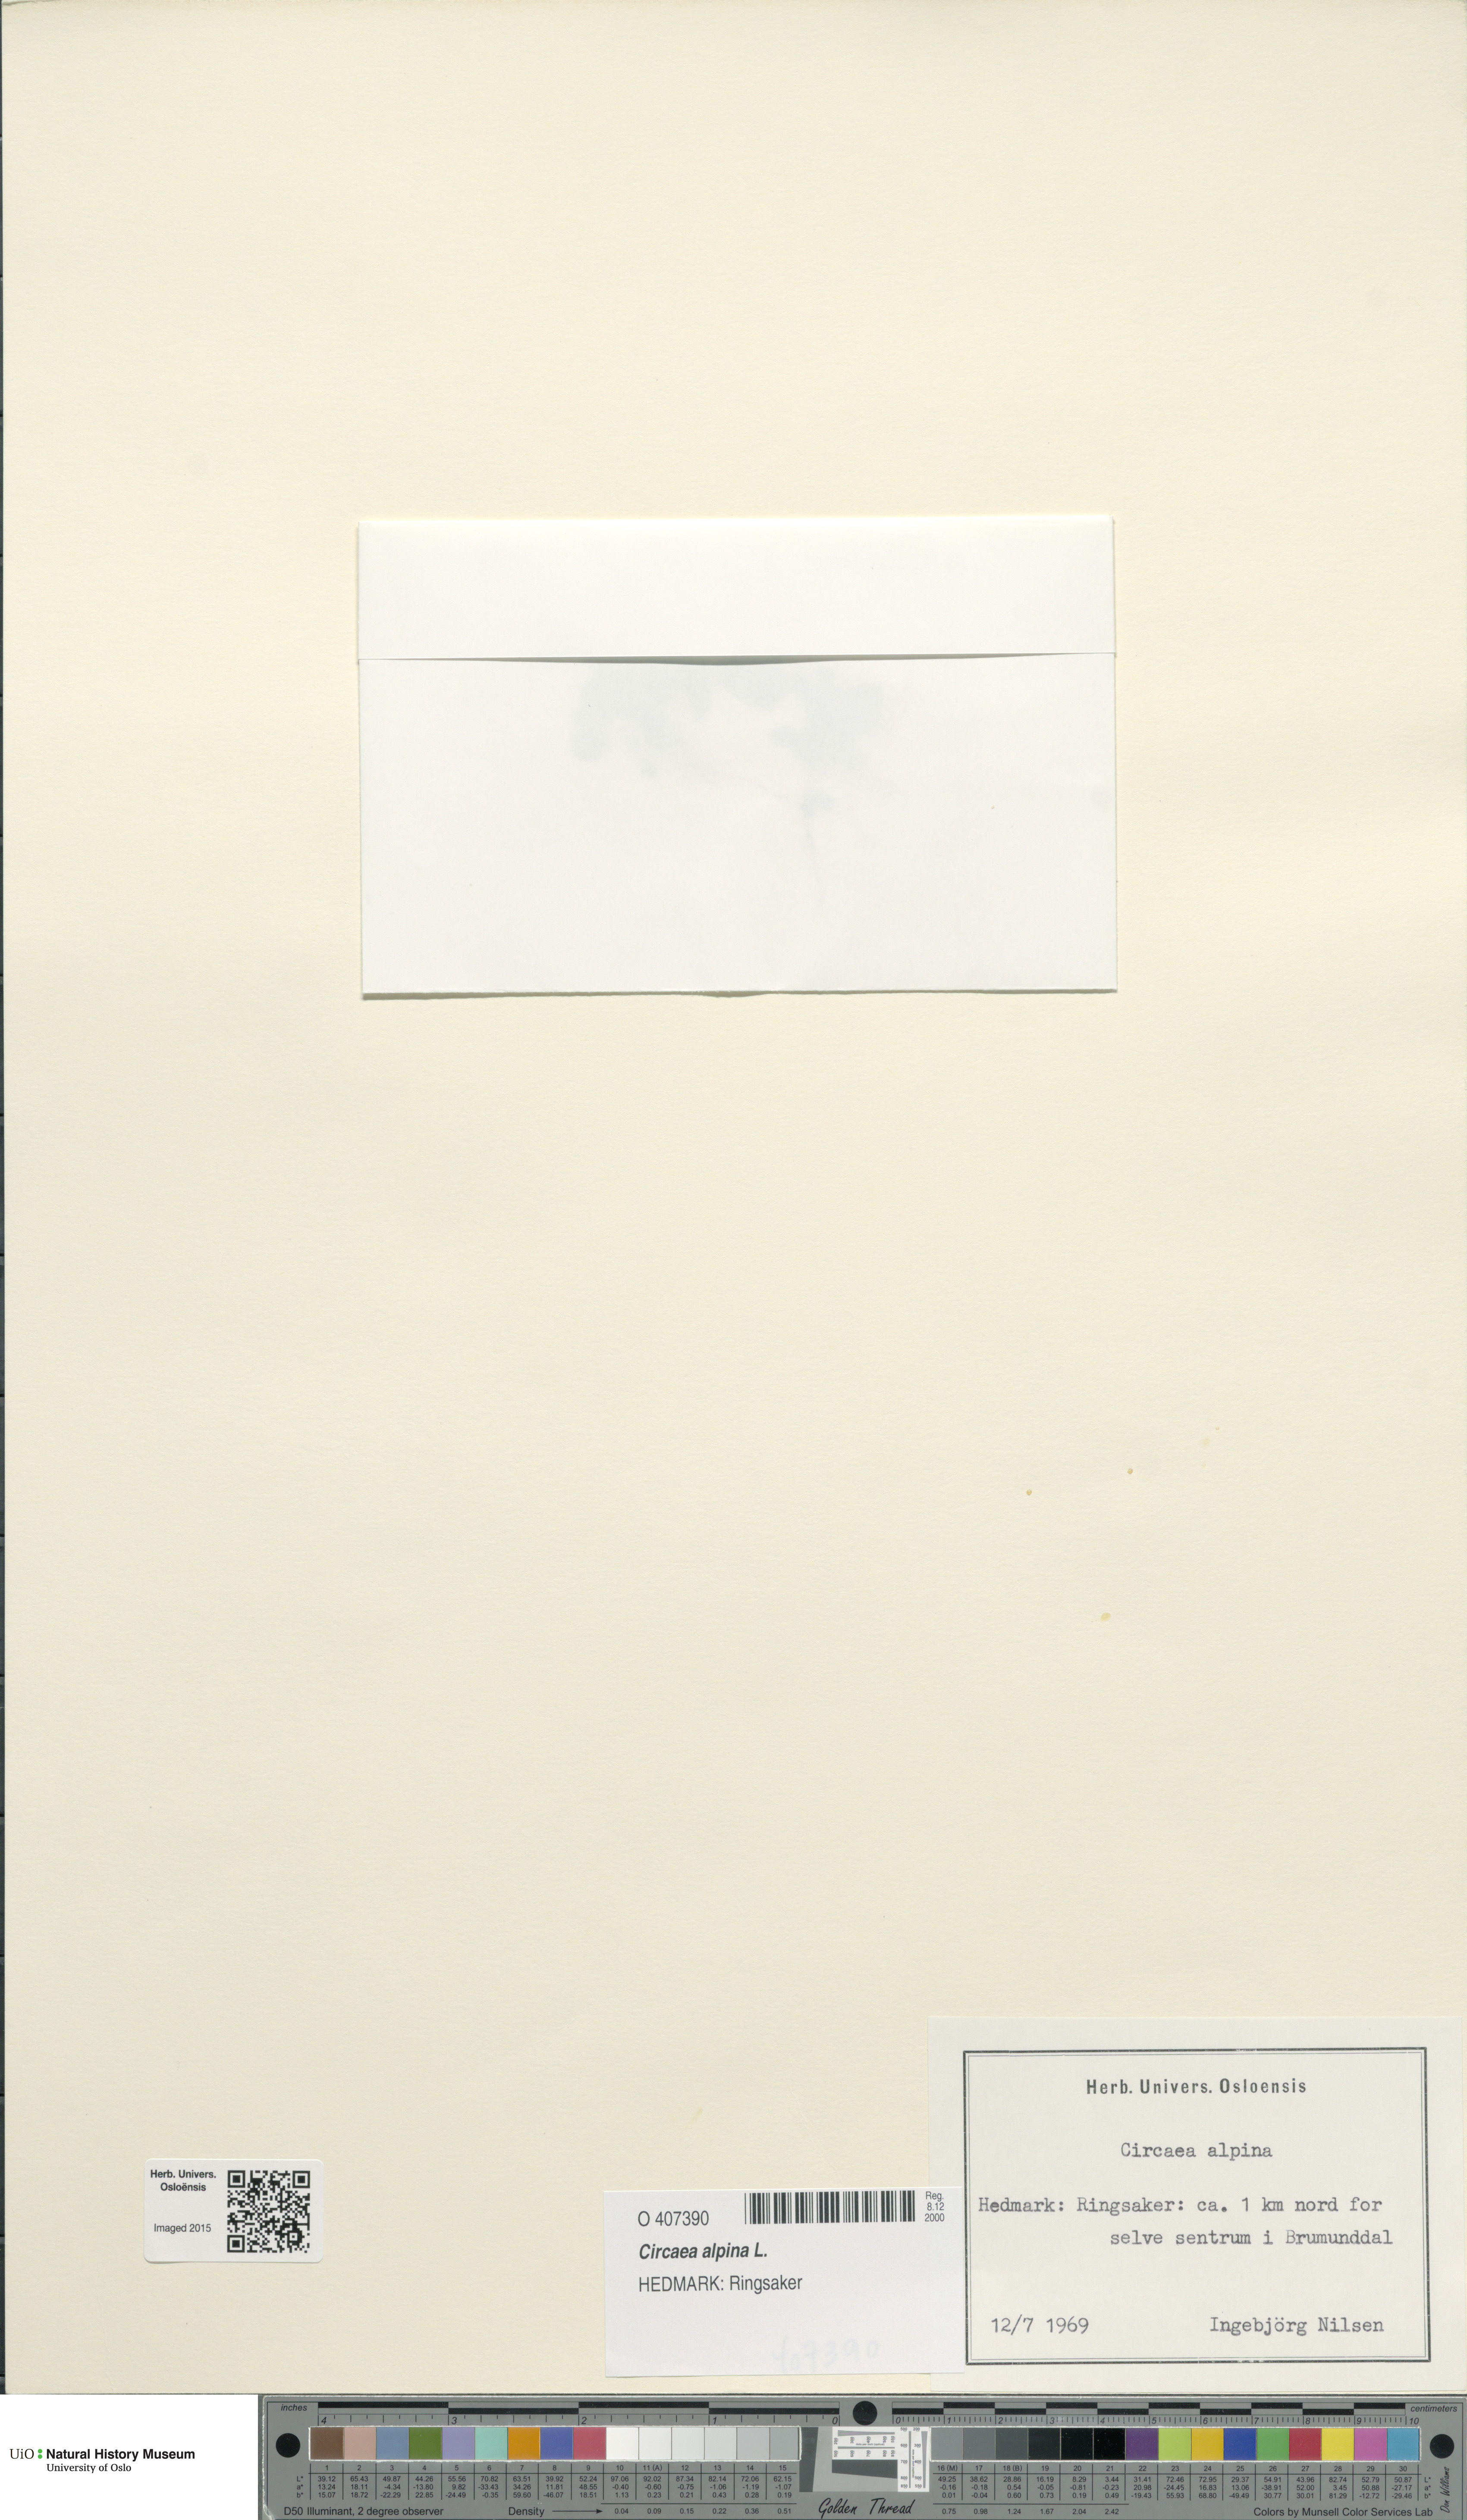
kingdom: Plantae
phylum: Tracheophyta
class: Magnoliopsida
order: Myrtales
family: Onagraceae
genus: Circaea
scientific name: Circaea alpina
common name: Alpine enchanter's-nightshade
